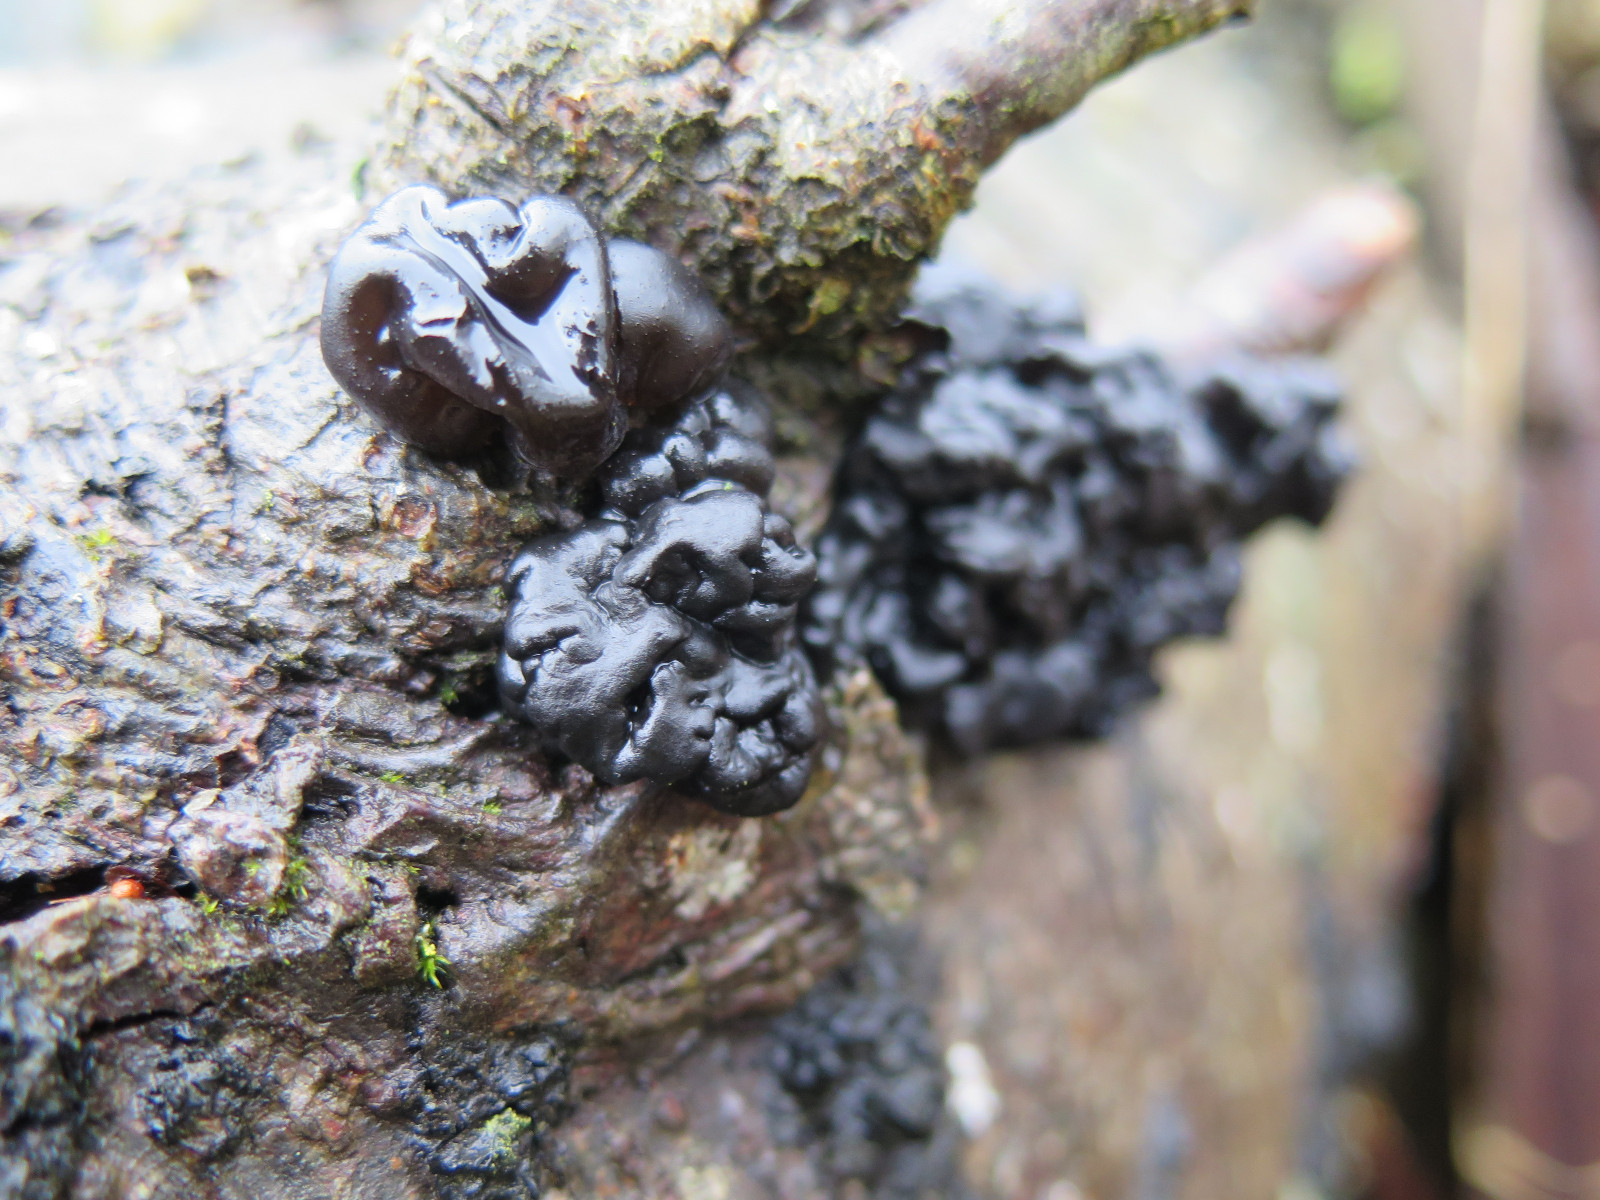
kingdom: Fungi
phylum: Basidiomycota
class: Agaricomycetes
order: Auriculariales
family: Auriculariaceae
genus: Exidia
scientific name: Exidia nigricans
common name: almindelig bævretop
